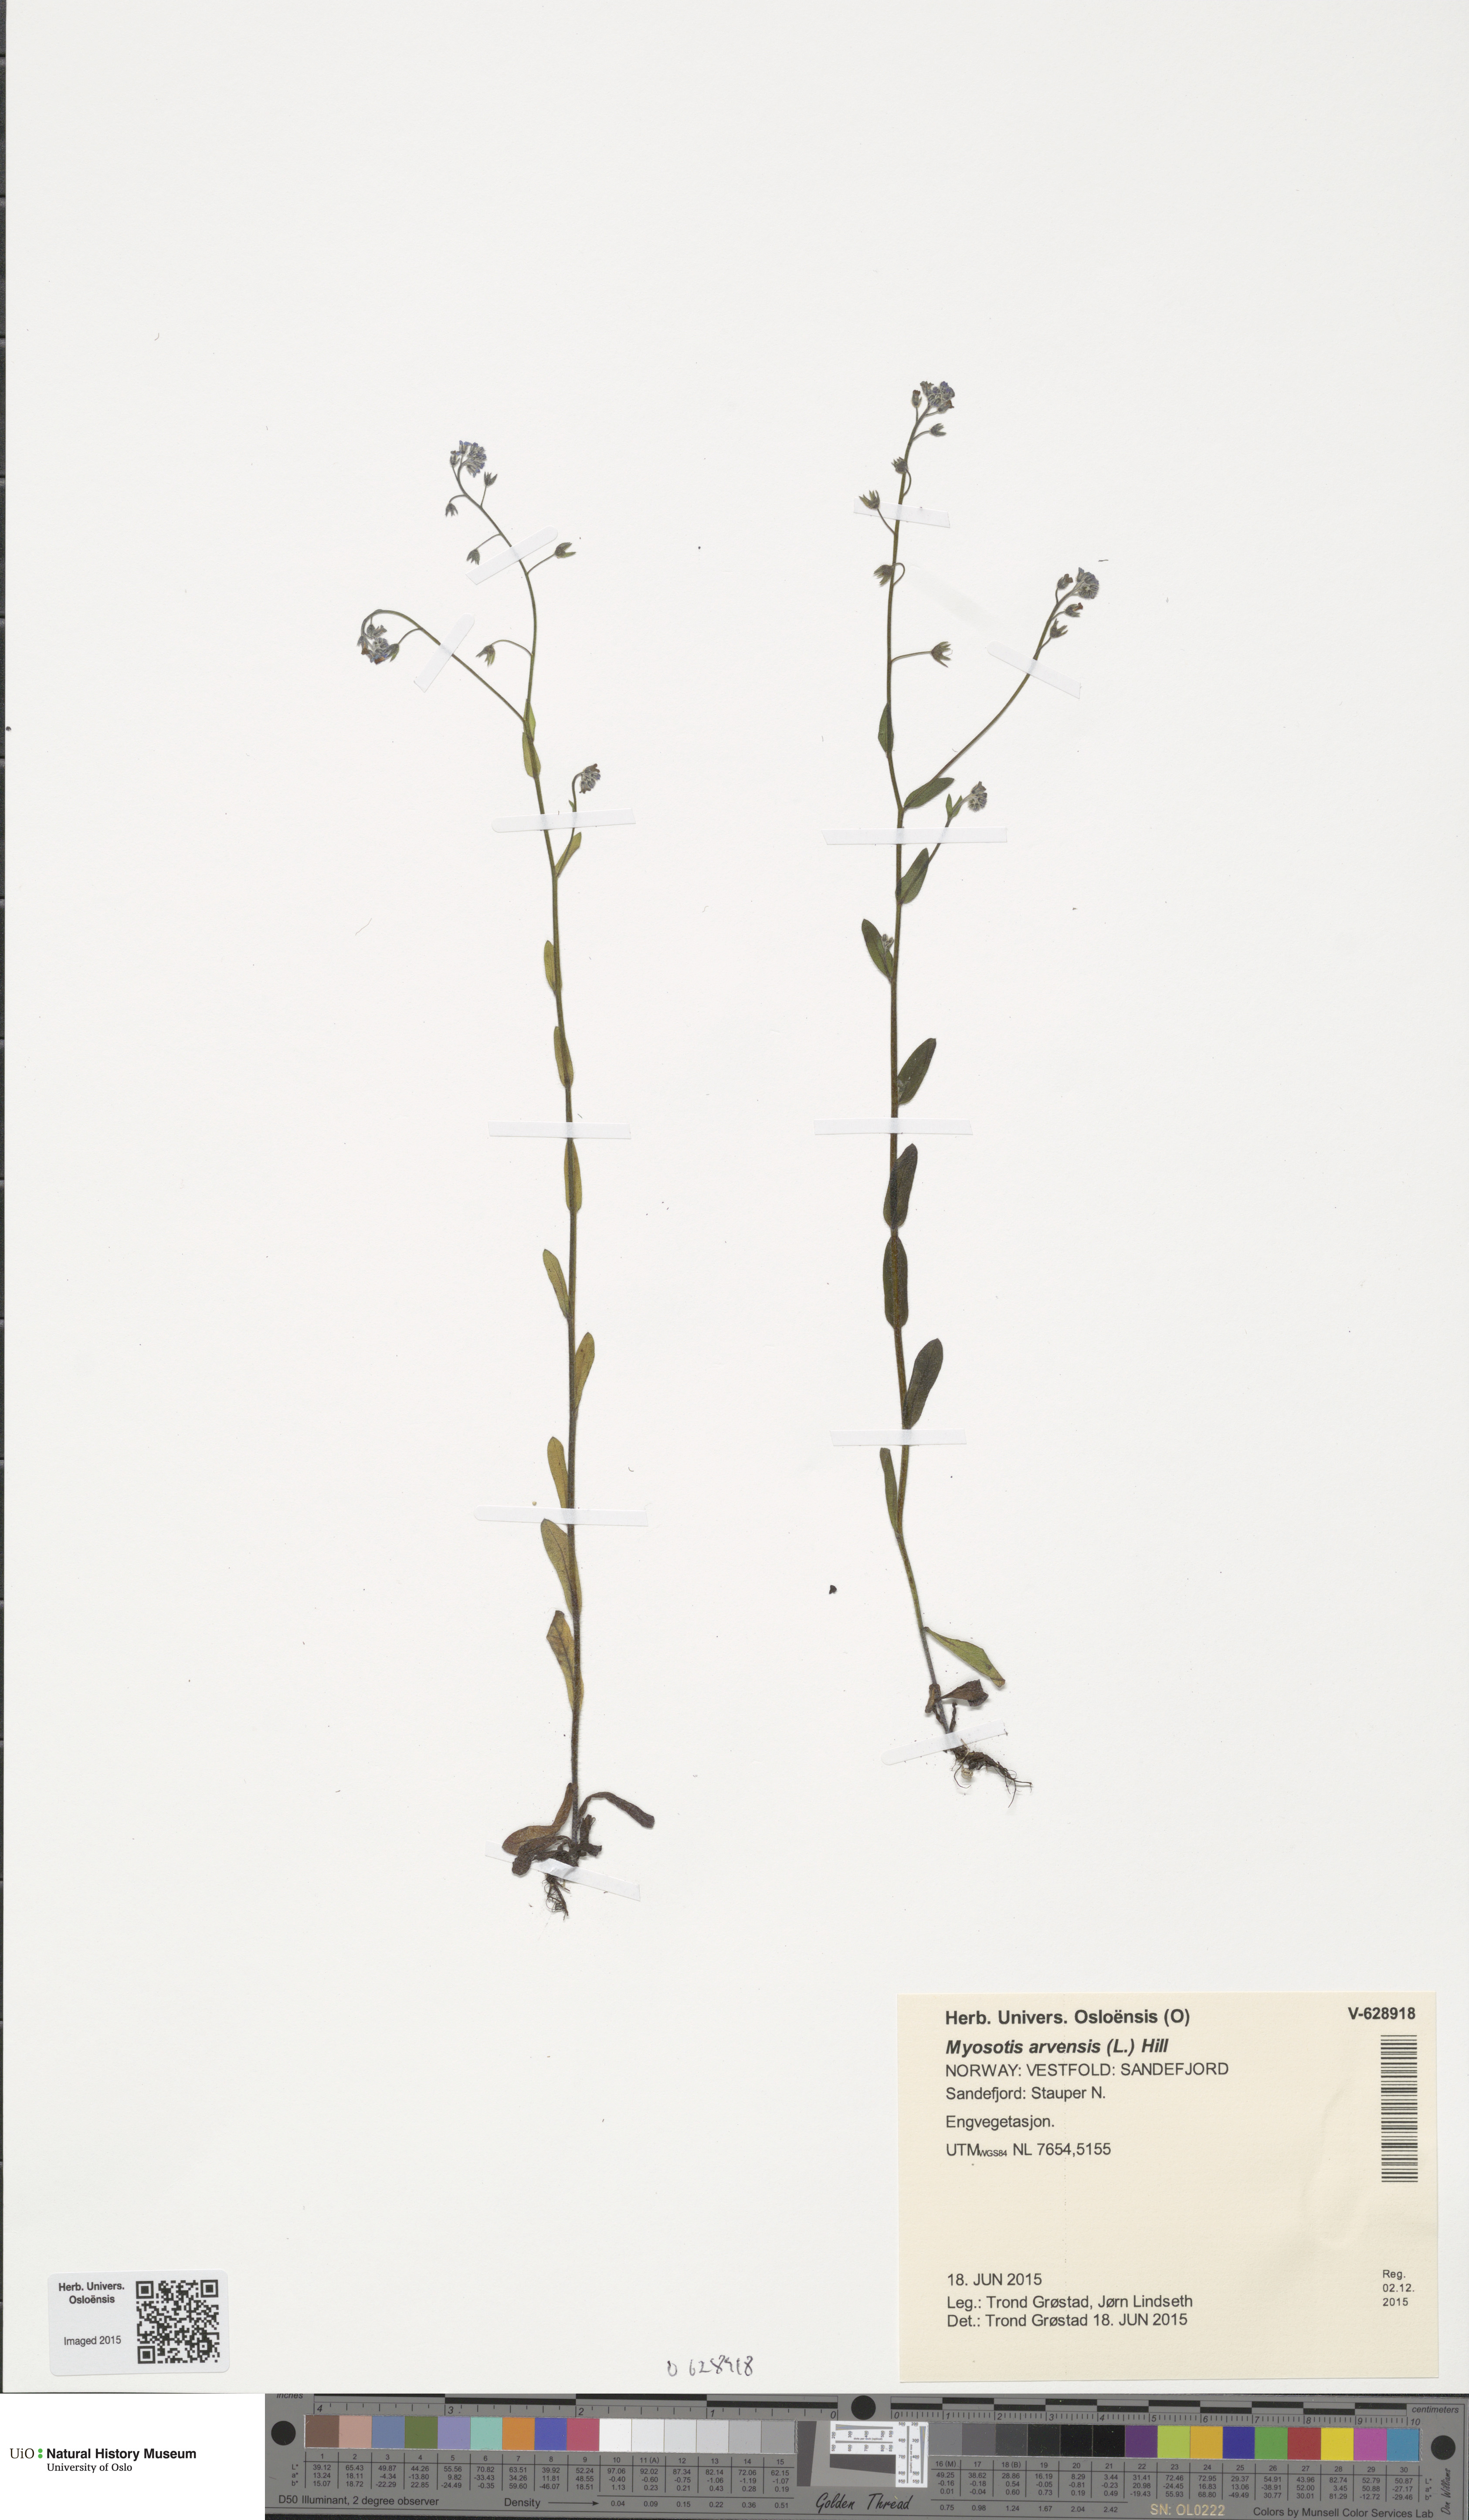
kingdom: Plantae
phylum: Tracheophyta
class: Magnoliopsida
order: Boraginales
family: Boraginaceae
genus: Myosotis
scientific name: Myosotis arvensis
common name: Field forget-me-not
